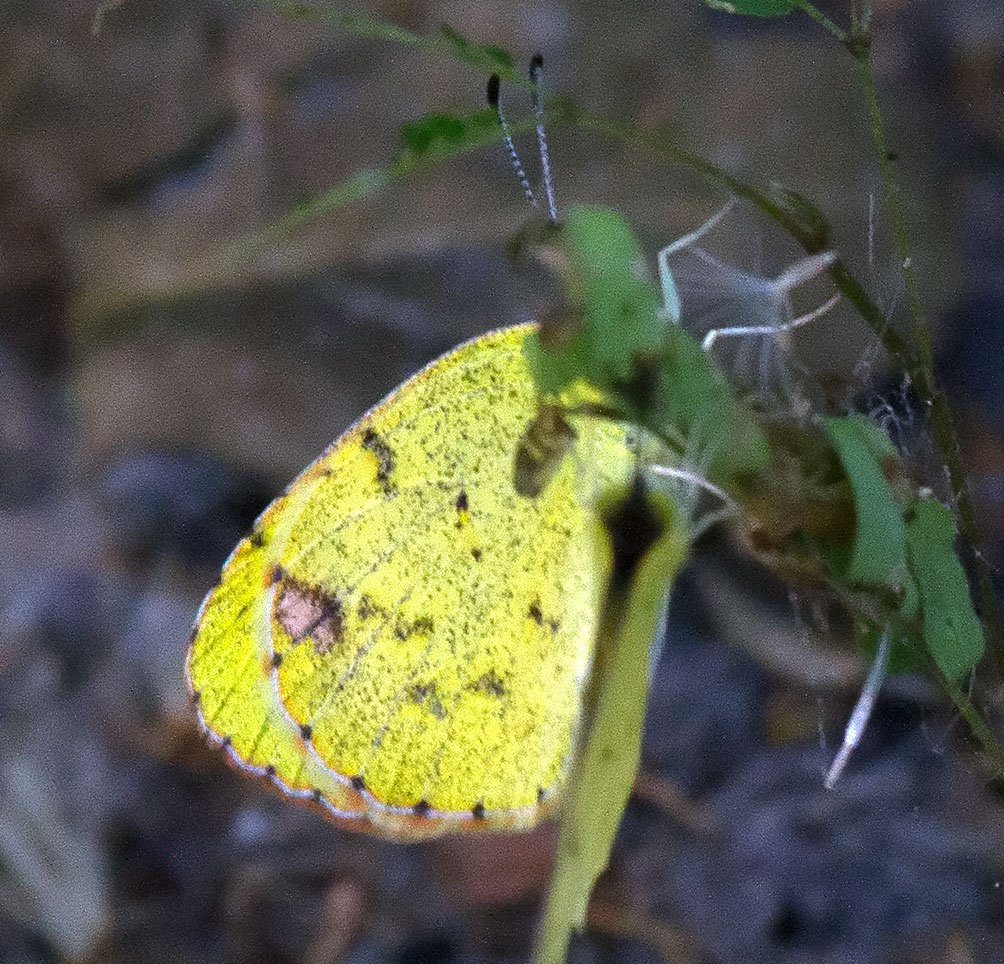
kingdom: Animalia
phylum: Arthropoda
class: Insecta
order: Lepidoptera
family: Pieridae
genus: Pyrisitia
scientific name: Pyrisitia lisa
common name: Little Yellow
